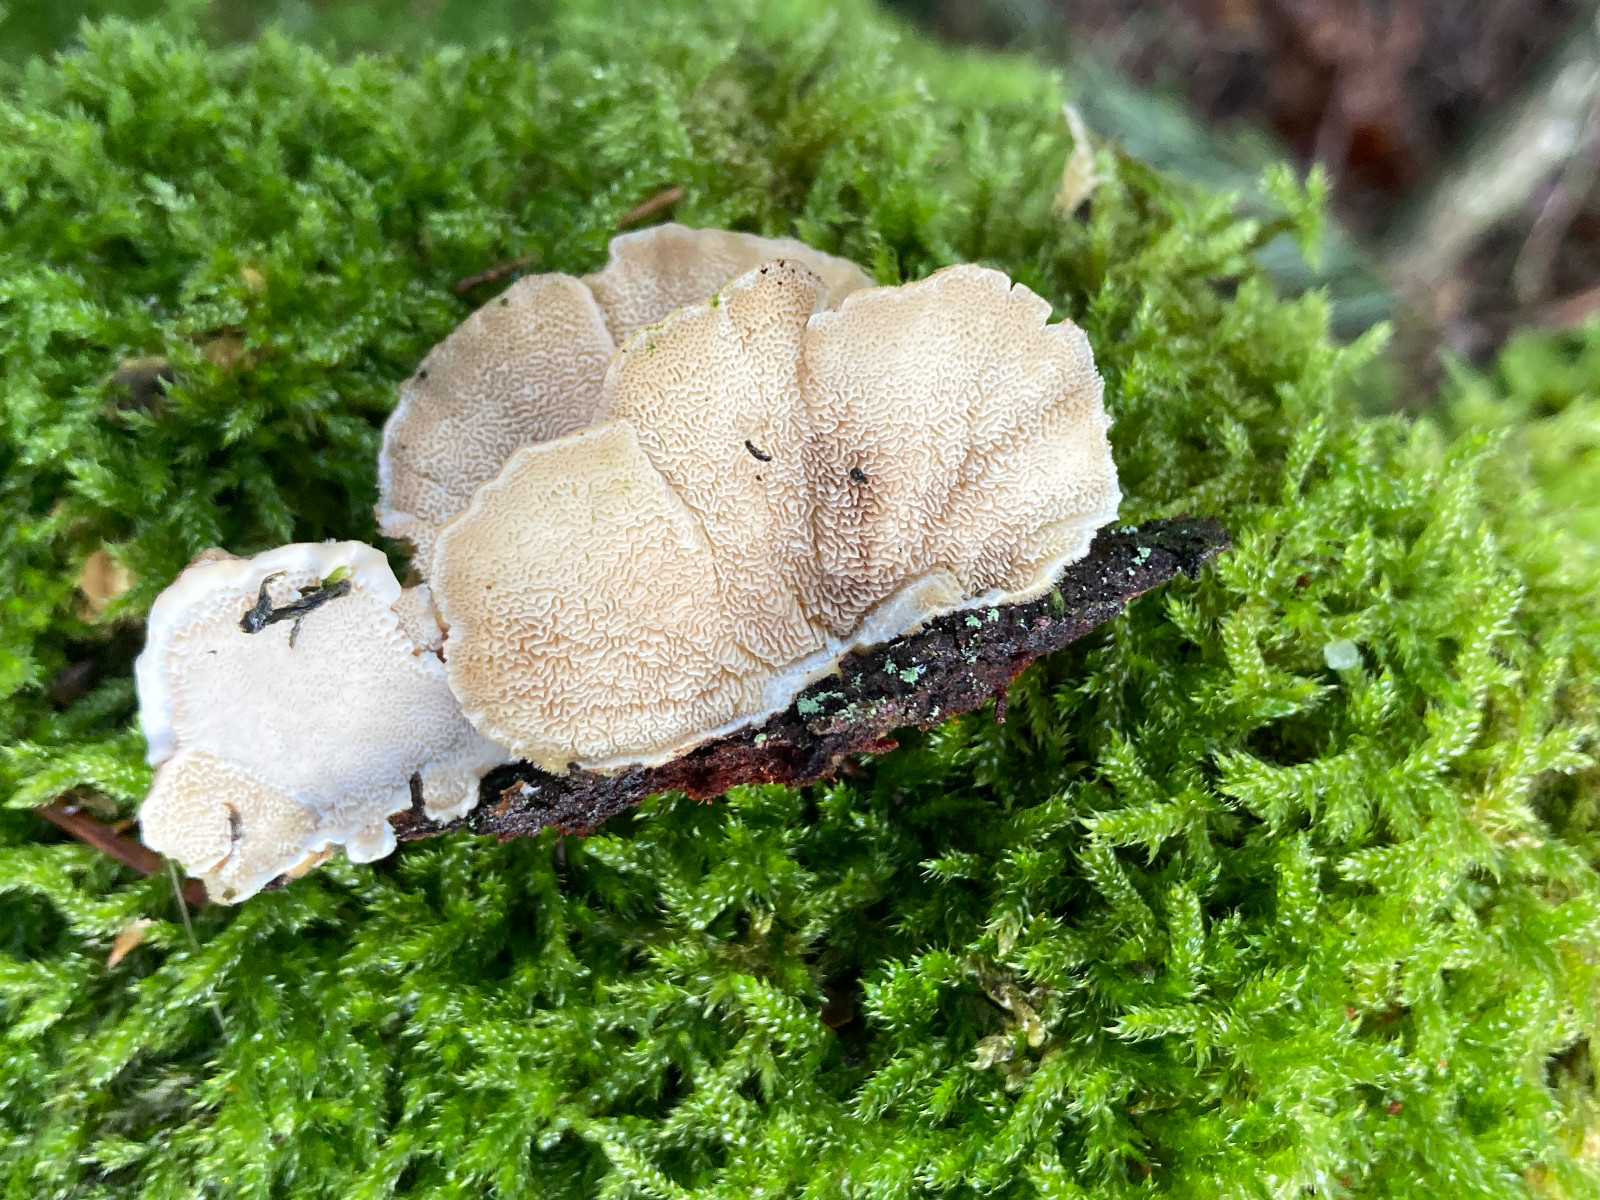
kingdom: Fungi
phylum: Basidiomycota
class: Agaricomycetes
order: Polyporales
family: Polyporaceae
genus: Trametes
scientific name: Trametes
